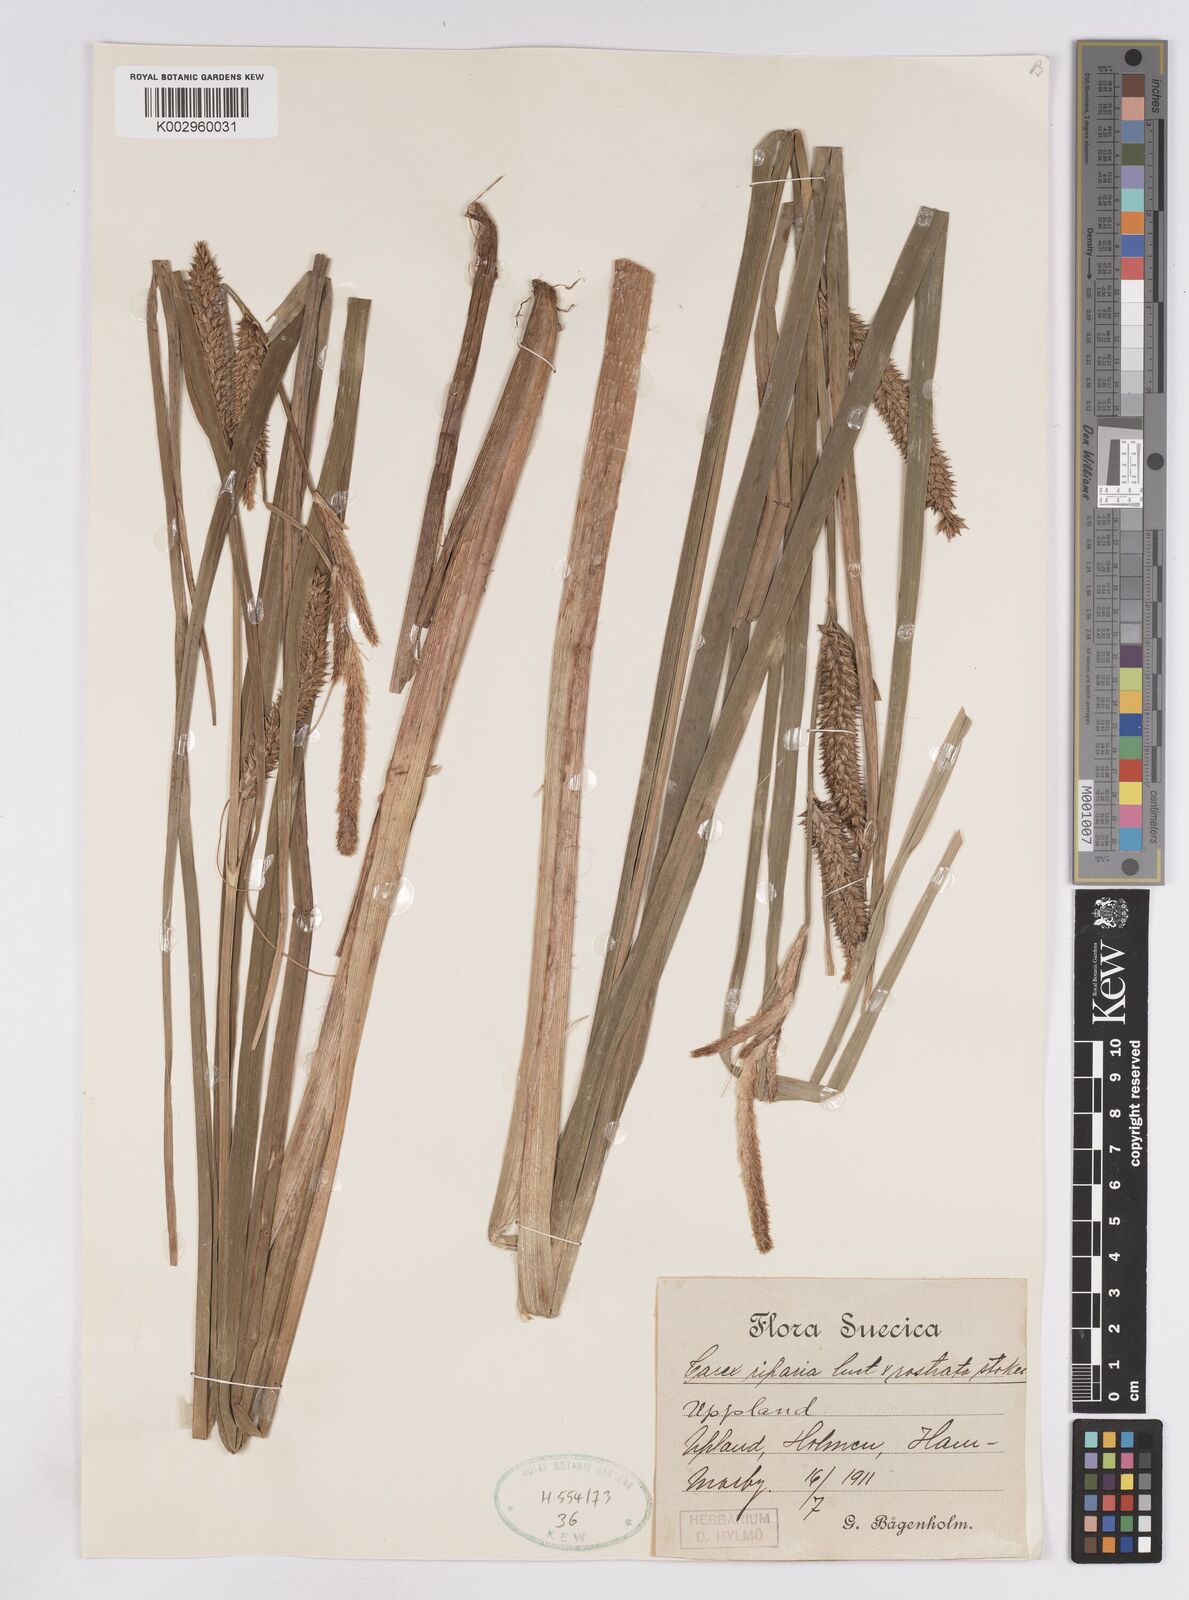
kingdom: Plantae
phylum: Tracheophyta
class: Liliopsida
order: Poales
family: Cyperaceae
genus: Carex
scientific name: Carex
